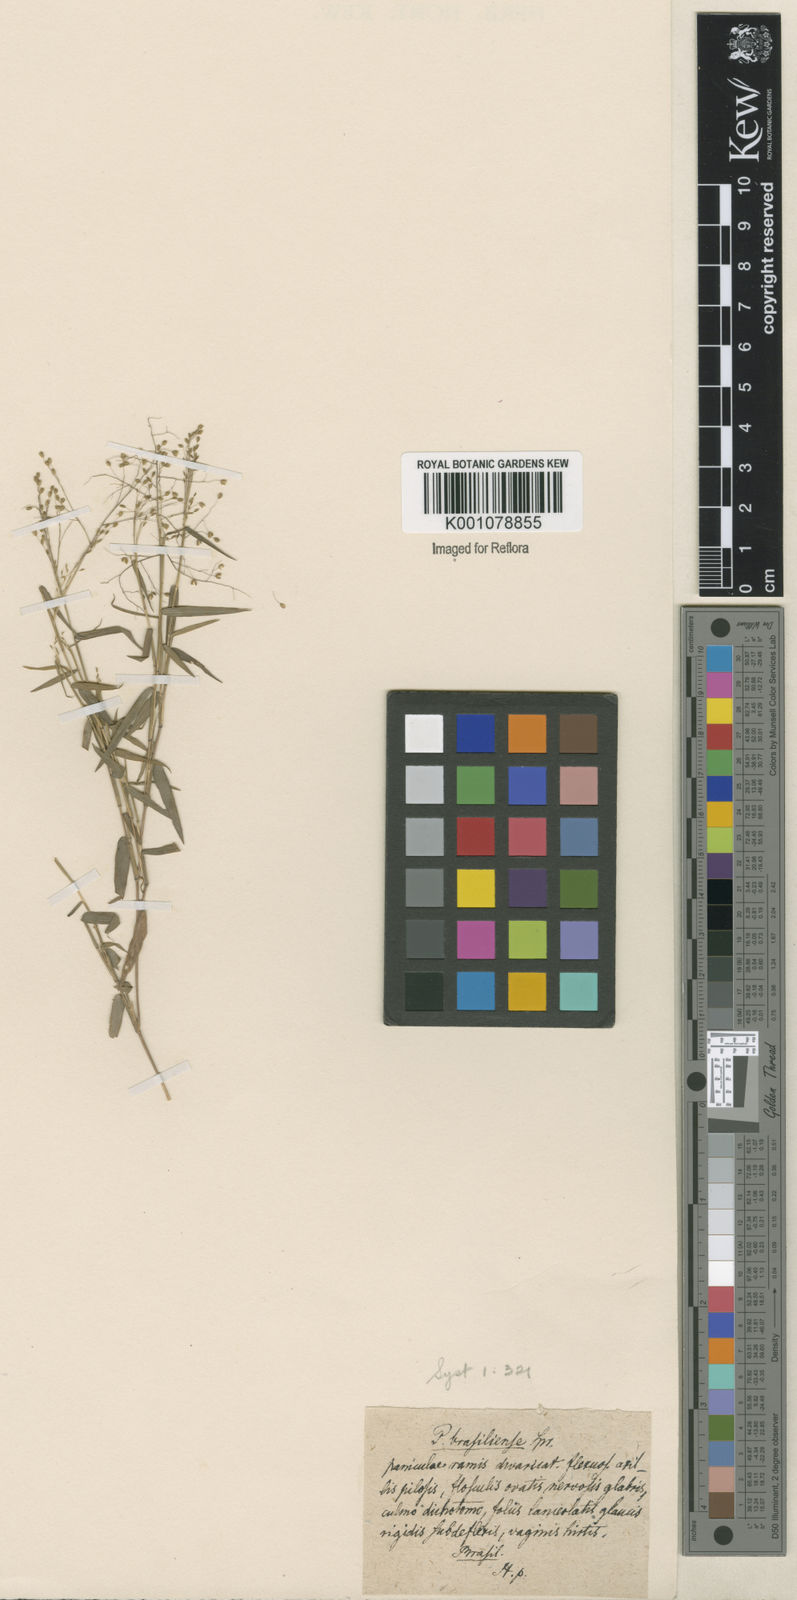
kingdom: Plantae
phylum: Tracheophyta
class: Liliopsida
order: Poales
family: Poaceae
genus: Trichanthecium
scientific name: Trichanthecium parvifolium
